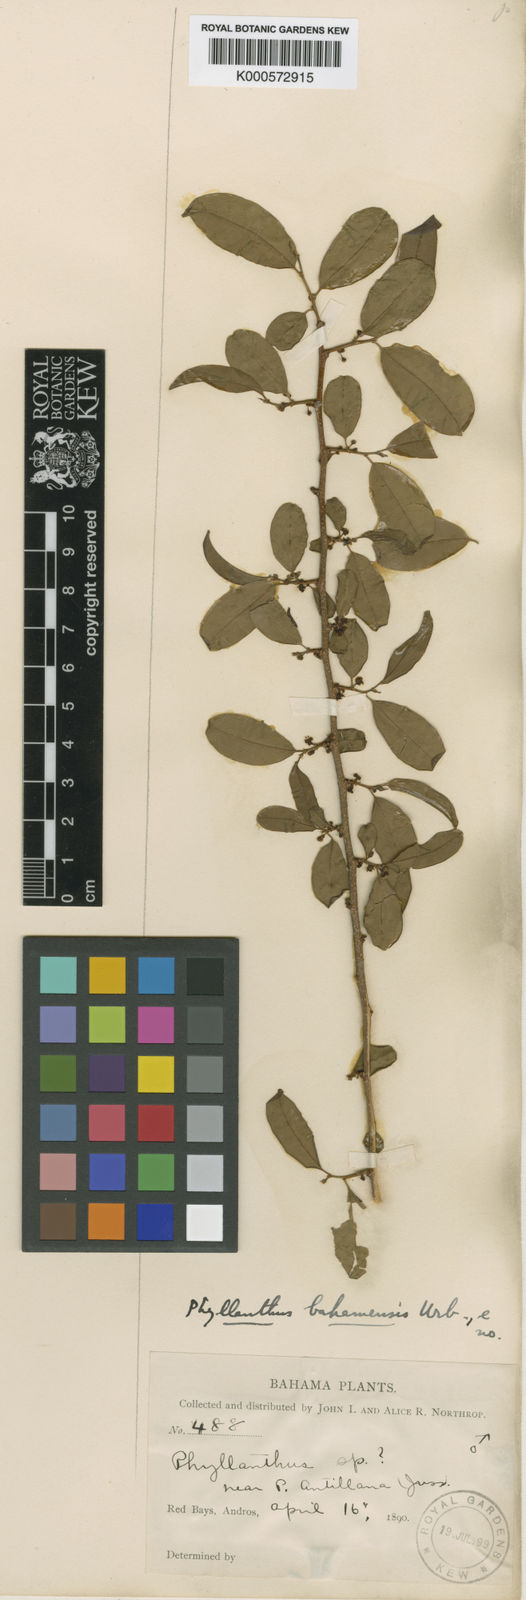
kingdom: Plantae
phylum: Tracheophyta
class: Magnoliopsida
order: Malpighiales
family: Phyllanthaceae
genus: Phyllanthus
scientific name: Phyllanthus
